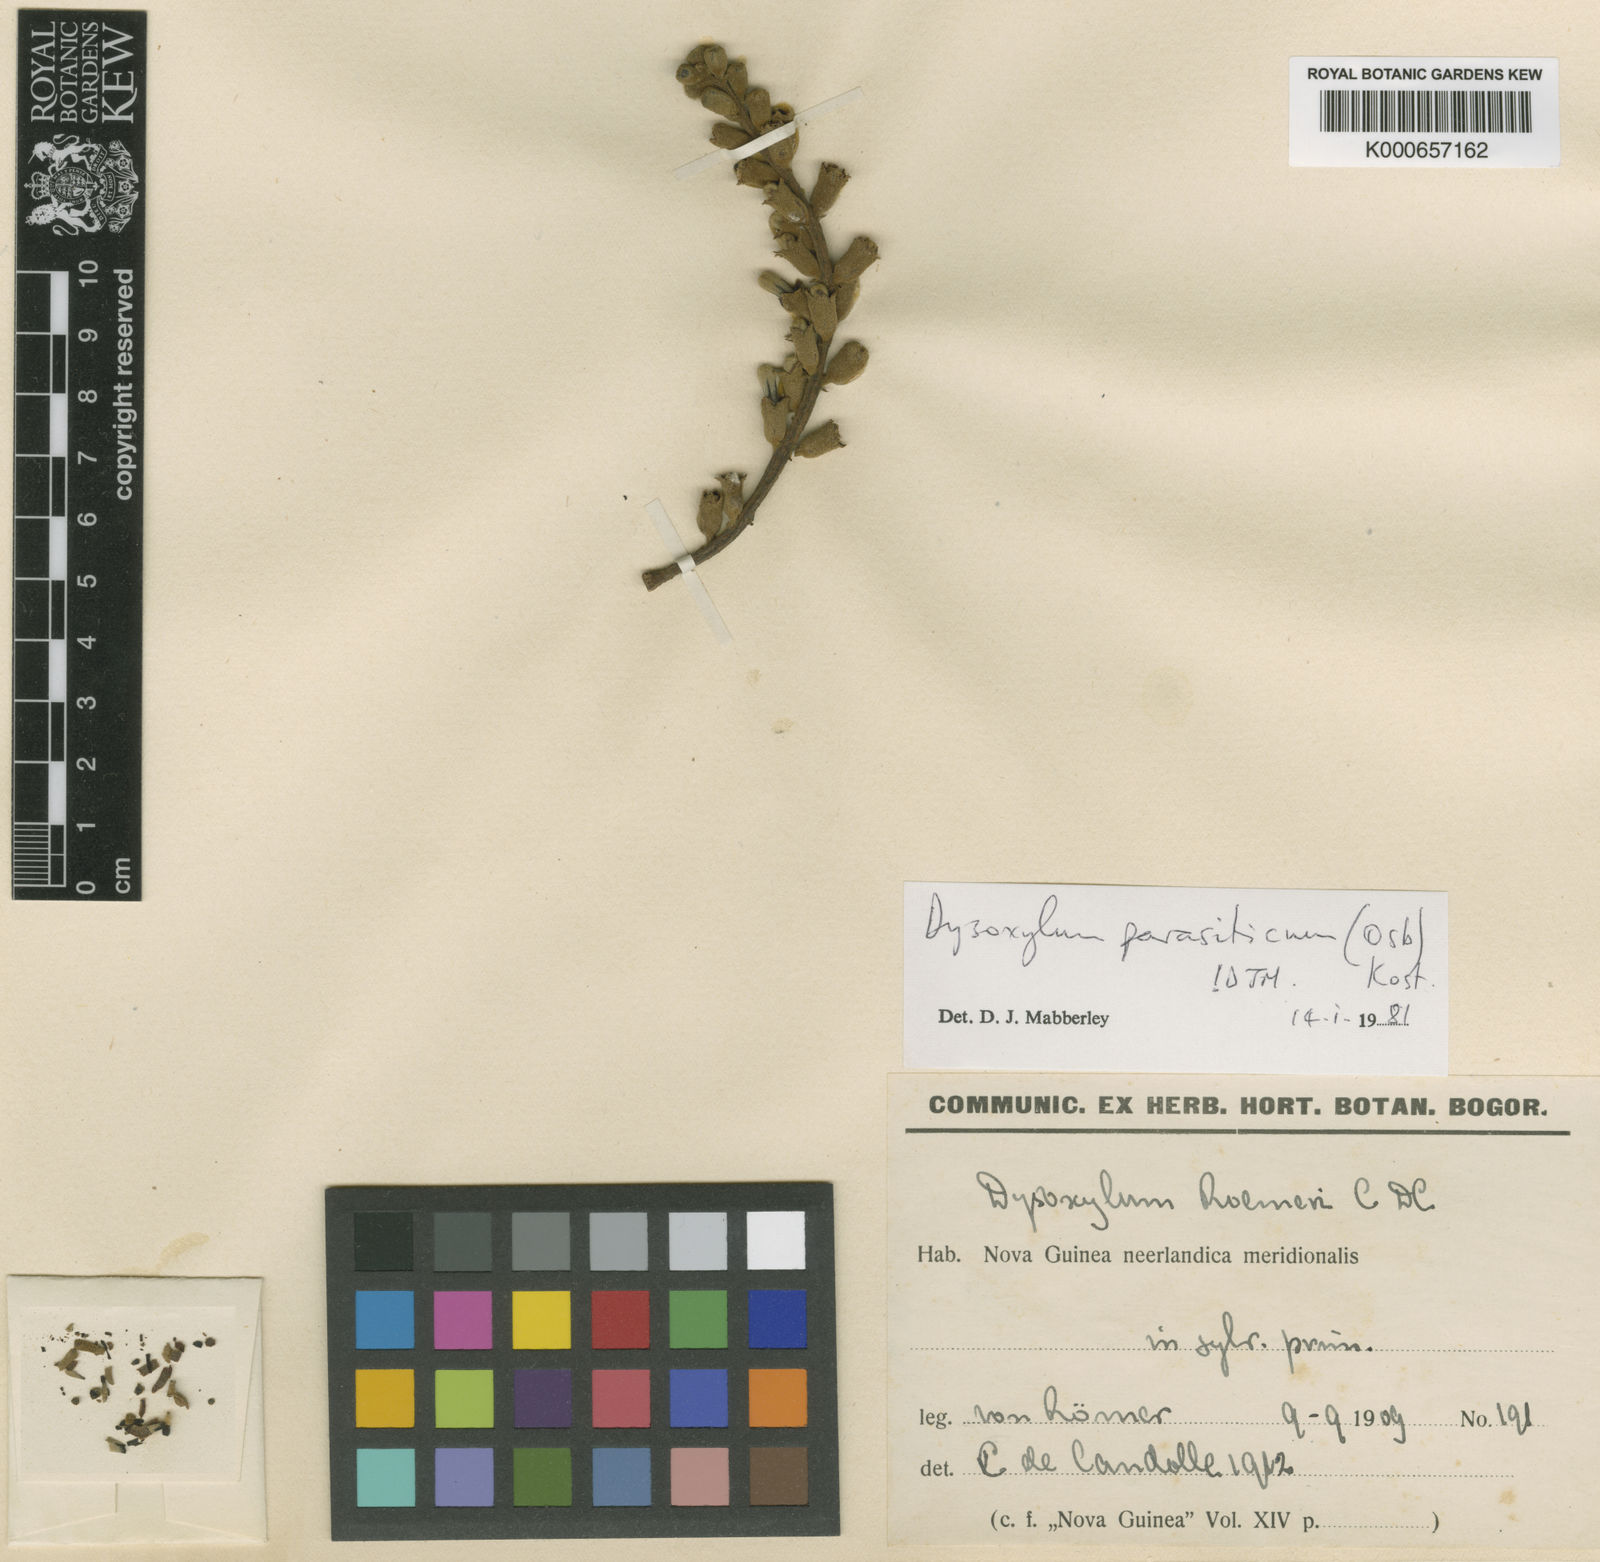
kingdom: Plantae
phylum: Tracheophyta
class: Magnoliopsida
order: Sapindales
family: Meliaceae
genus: Epicharis
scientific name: Epicharis parasitica
